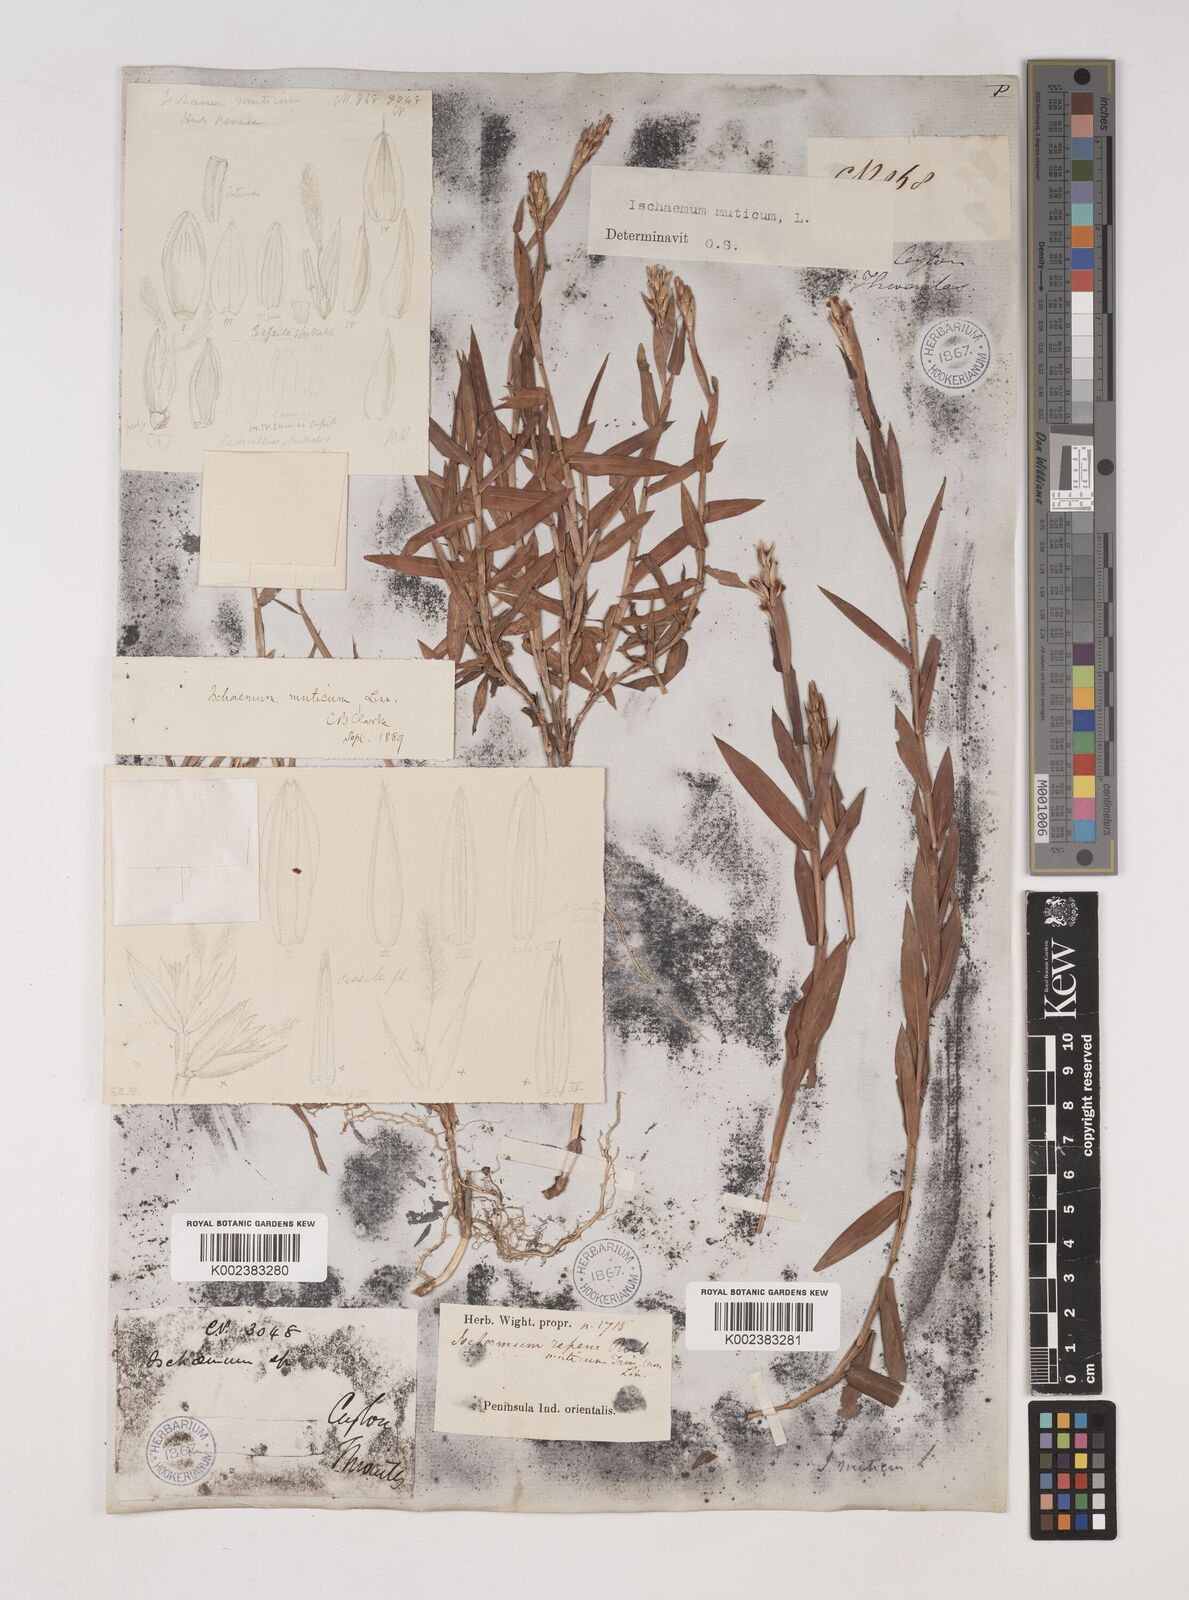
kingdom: Plantae
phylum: Tracheophyta
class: Liliopsida
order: Poales
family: Poaceae
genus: Ischaemum
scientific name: Ischaemum muticum
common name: Drought grass
